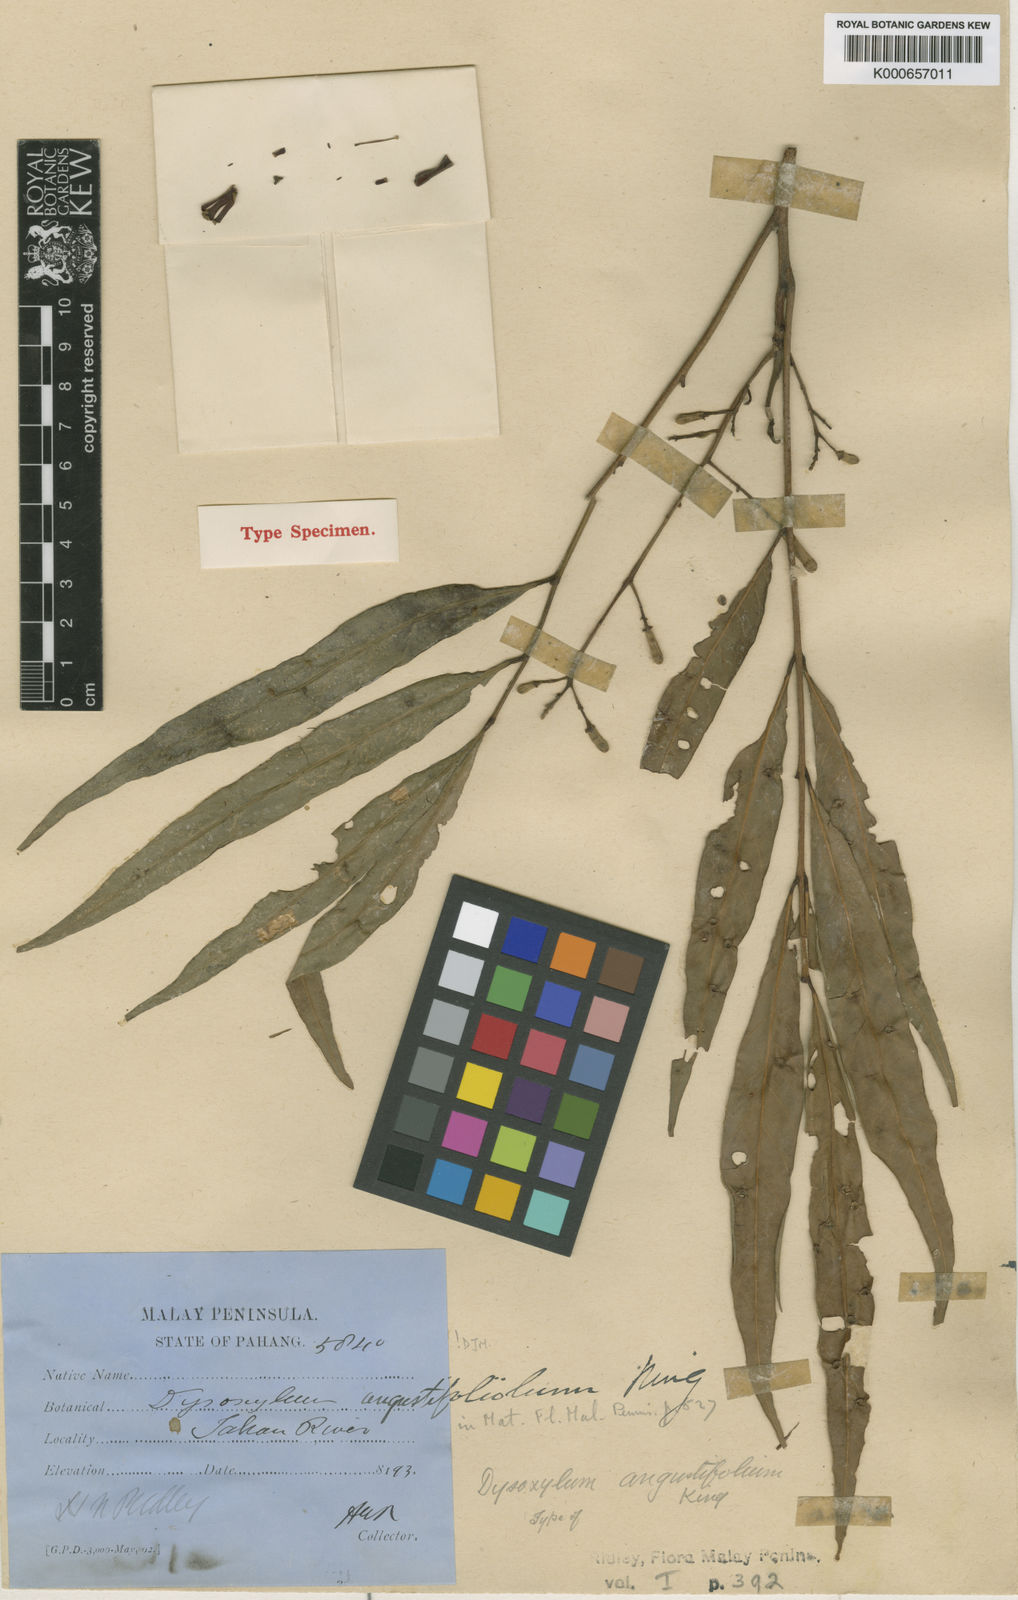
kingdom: Plantae
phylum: Tracheophyta
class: Magnoliopsida
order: Sapindales
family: Meliaceae
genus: Prasoxylon
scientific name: Prasoxylon angustifolium
